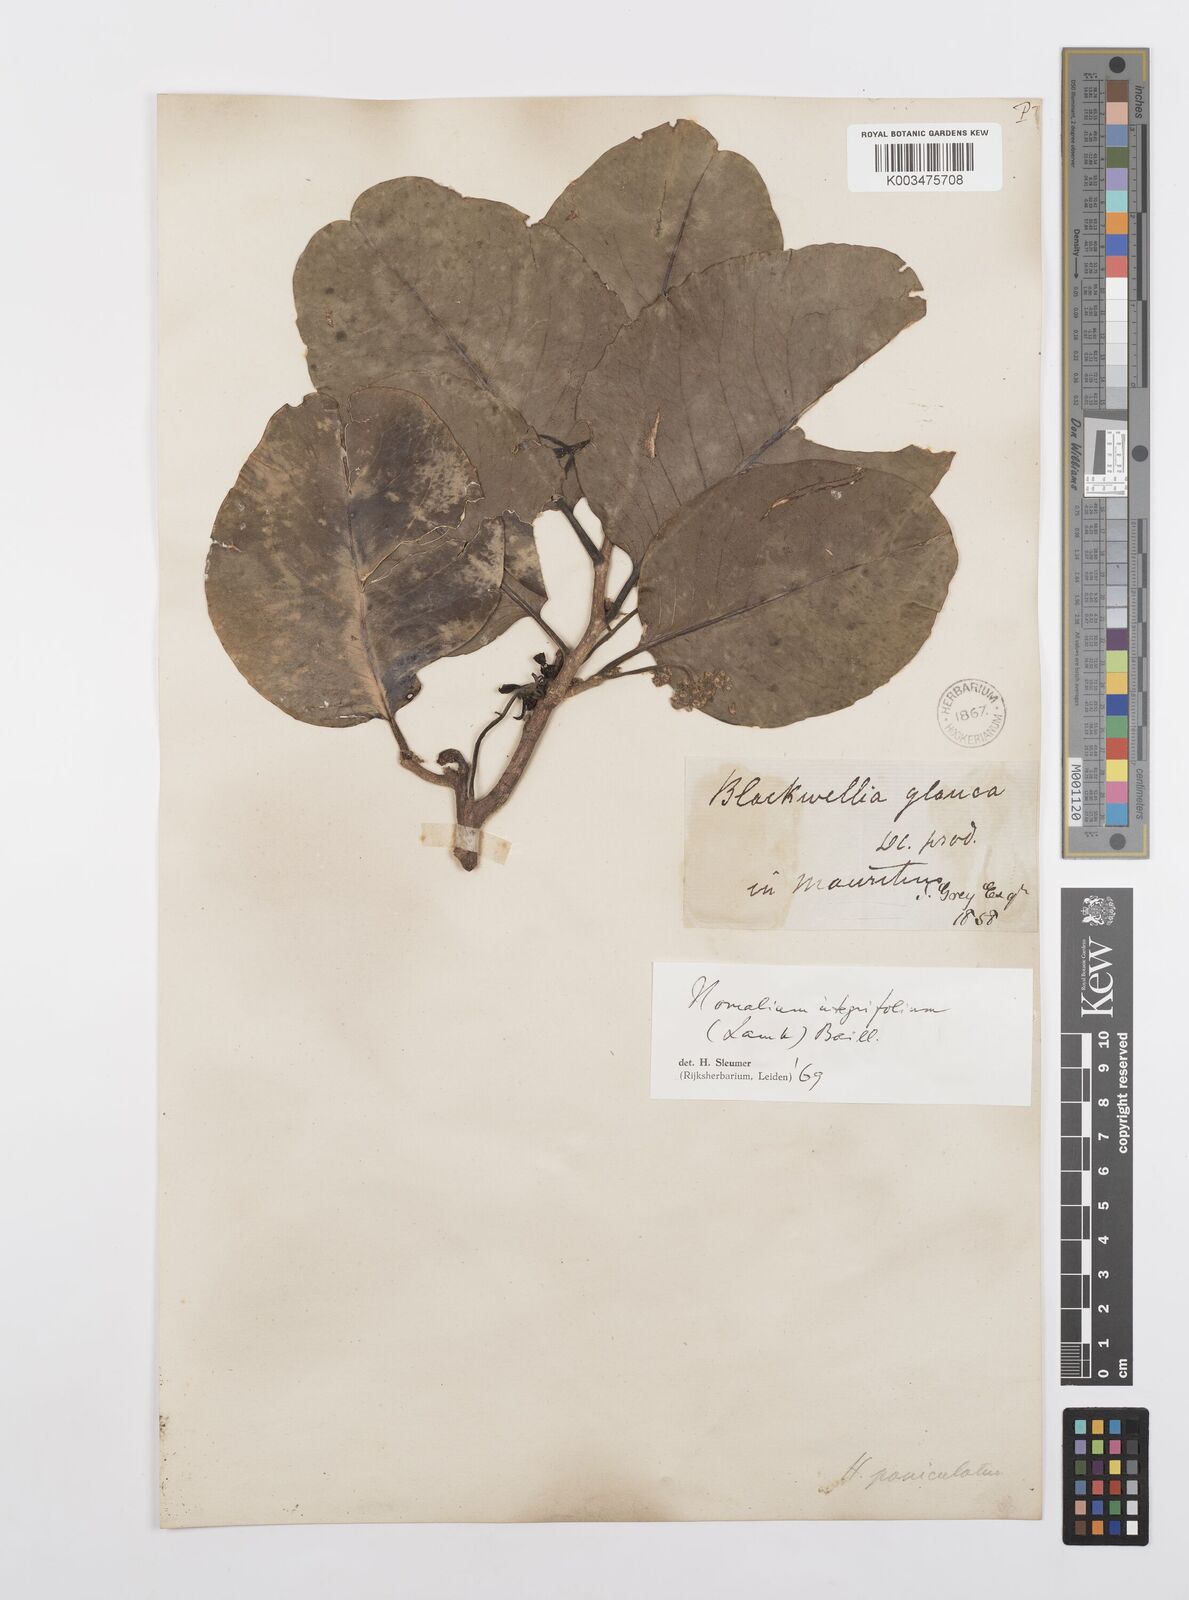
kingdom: Plantae
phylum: Tracheophyta
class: Magnoliopsida
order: Malpighiales
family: Salicaceae
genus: Homalium
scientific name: Homalium integrifolium
